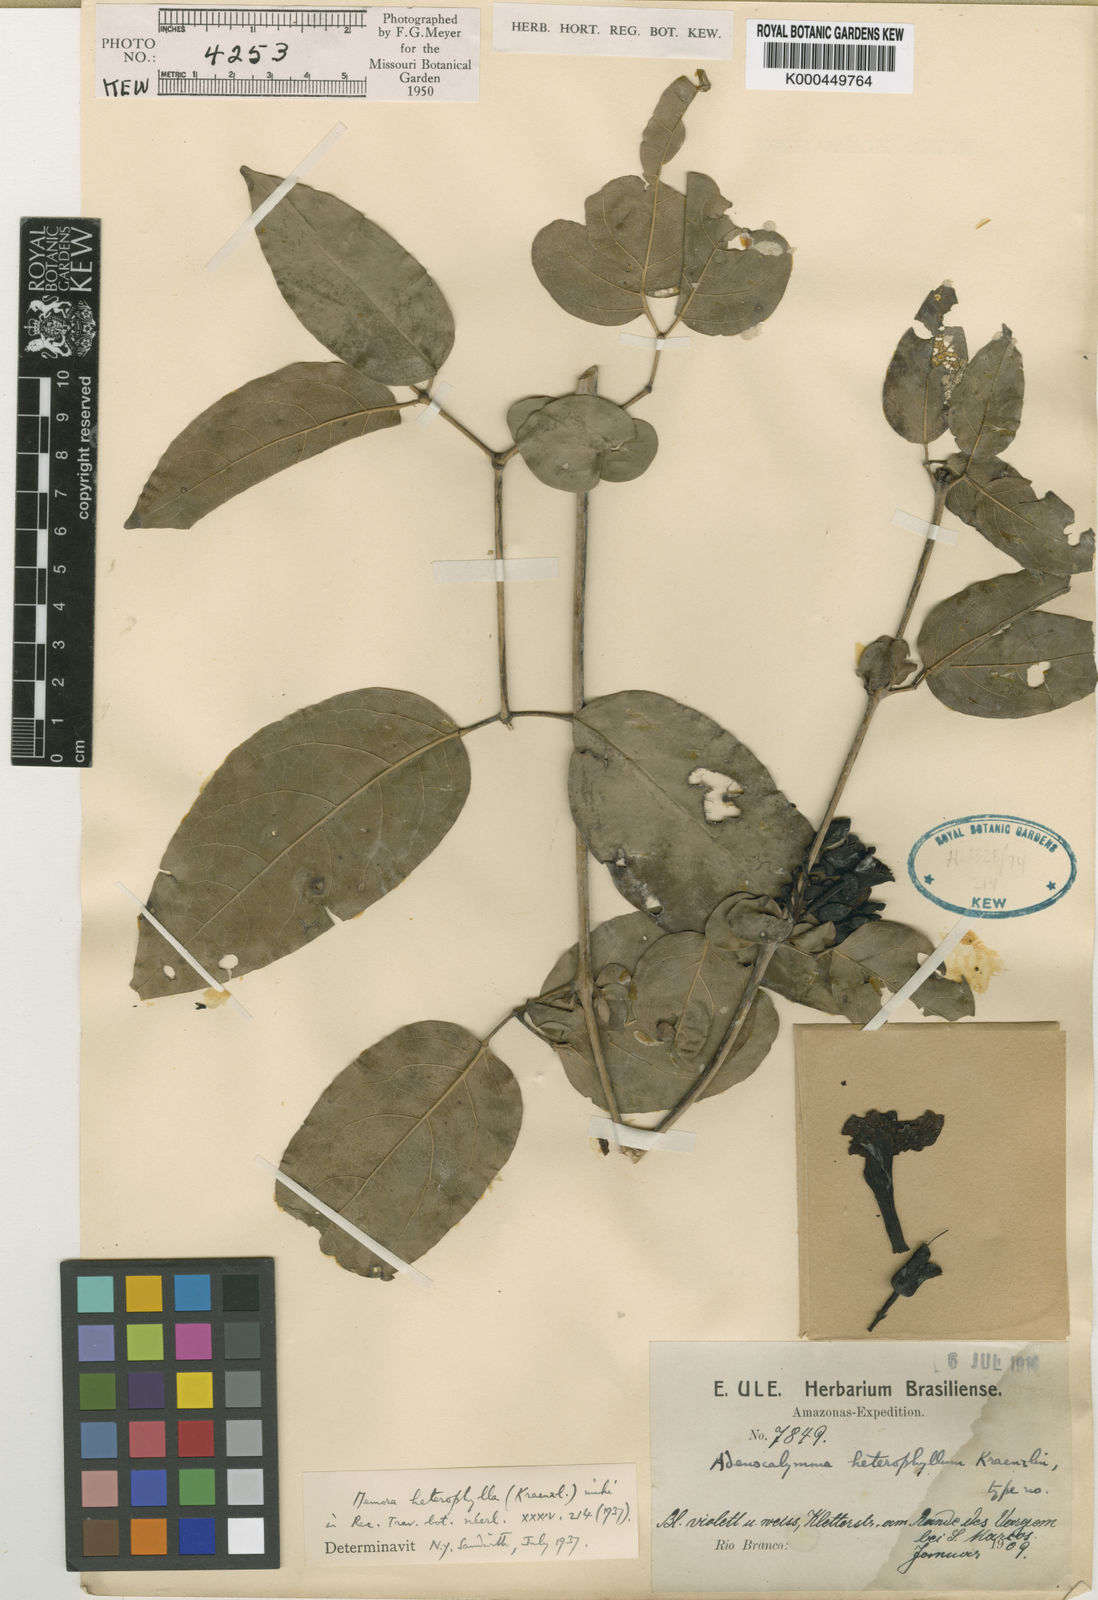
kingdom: Plantae
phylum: Tracheophyta
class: Magnoliopsida
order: Lamiales
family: Bignoniaceae
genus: Adenocalymma
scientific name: Adenocalymma heterophyllum
